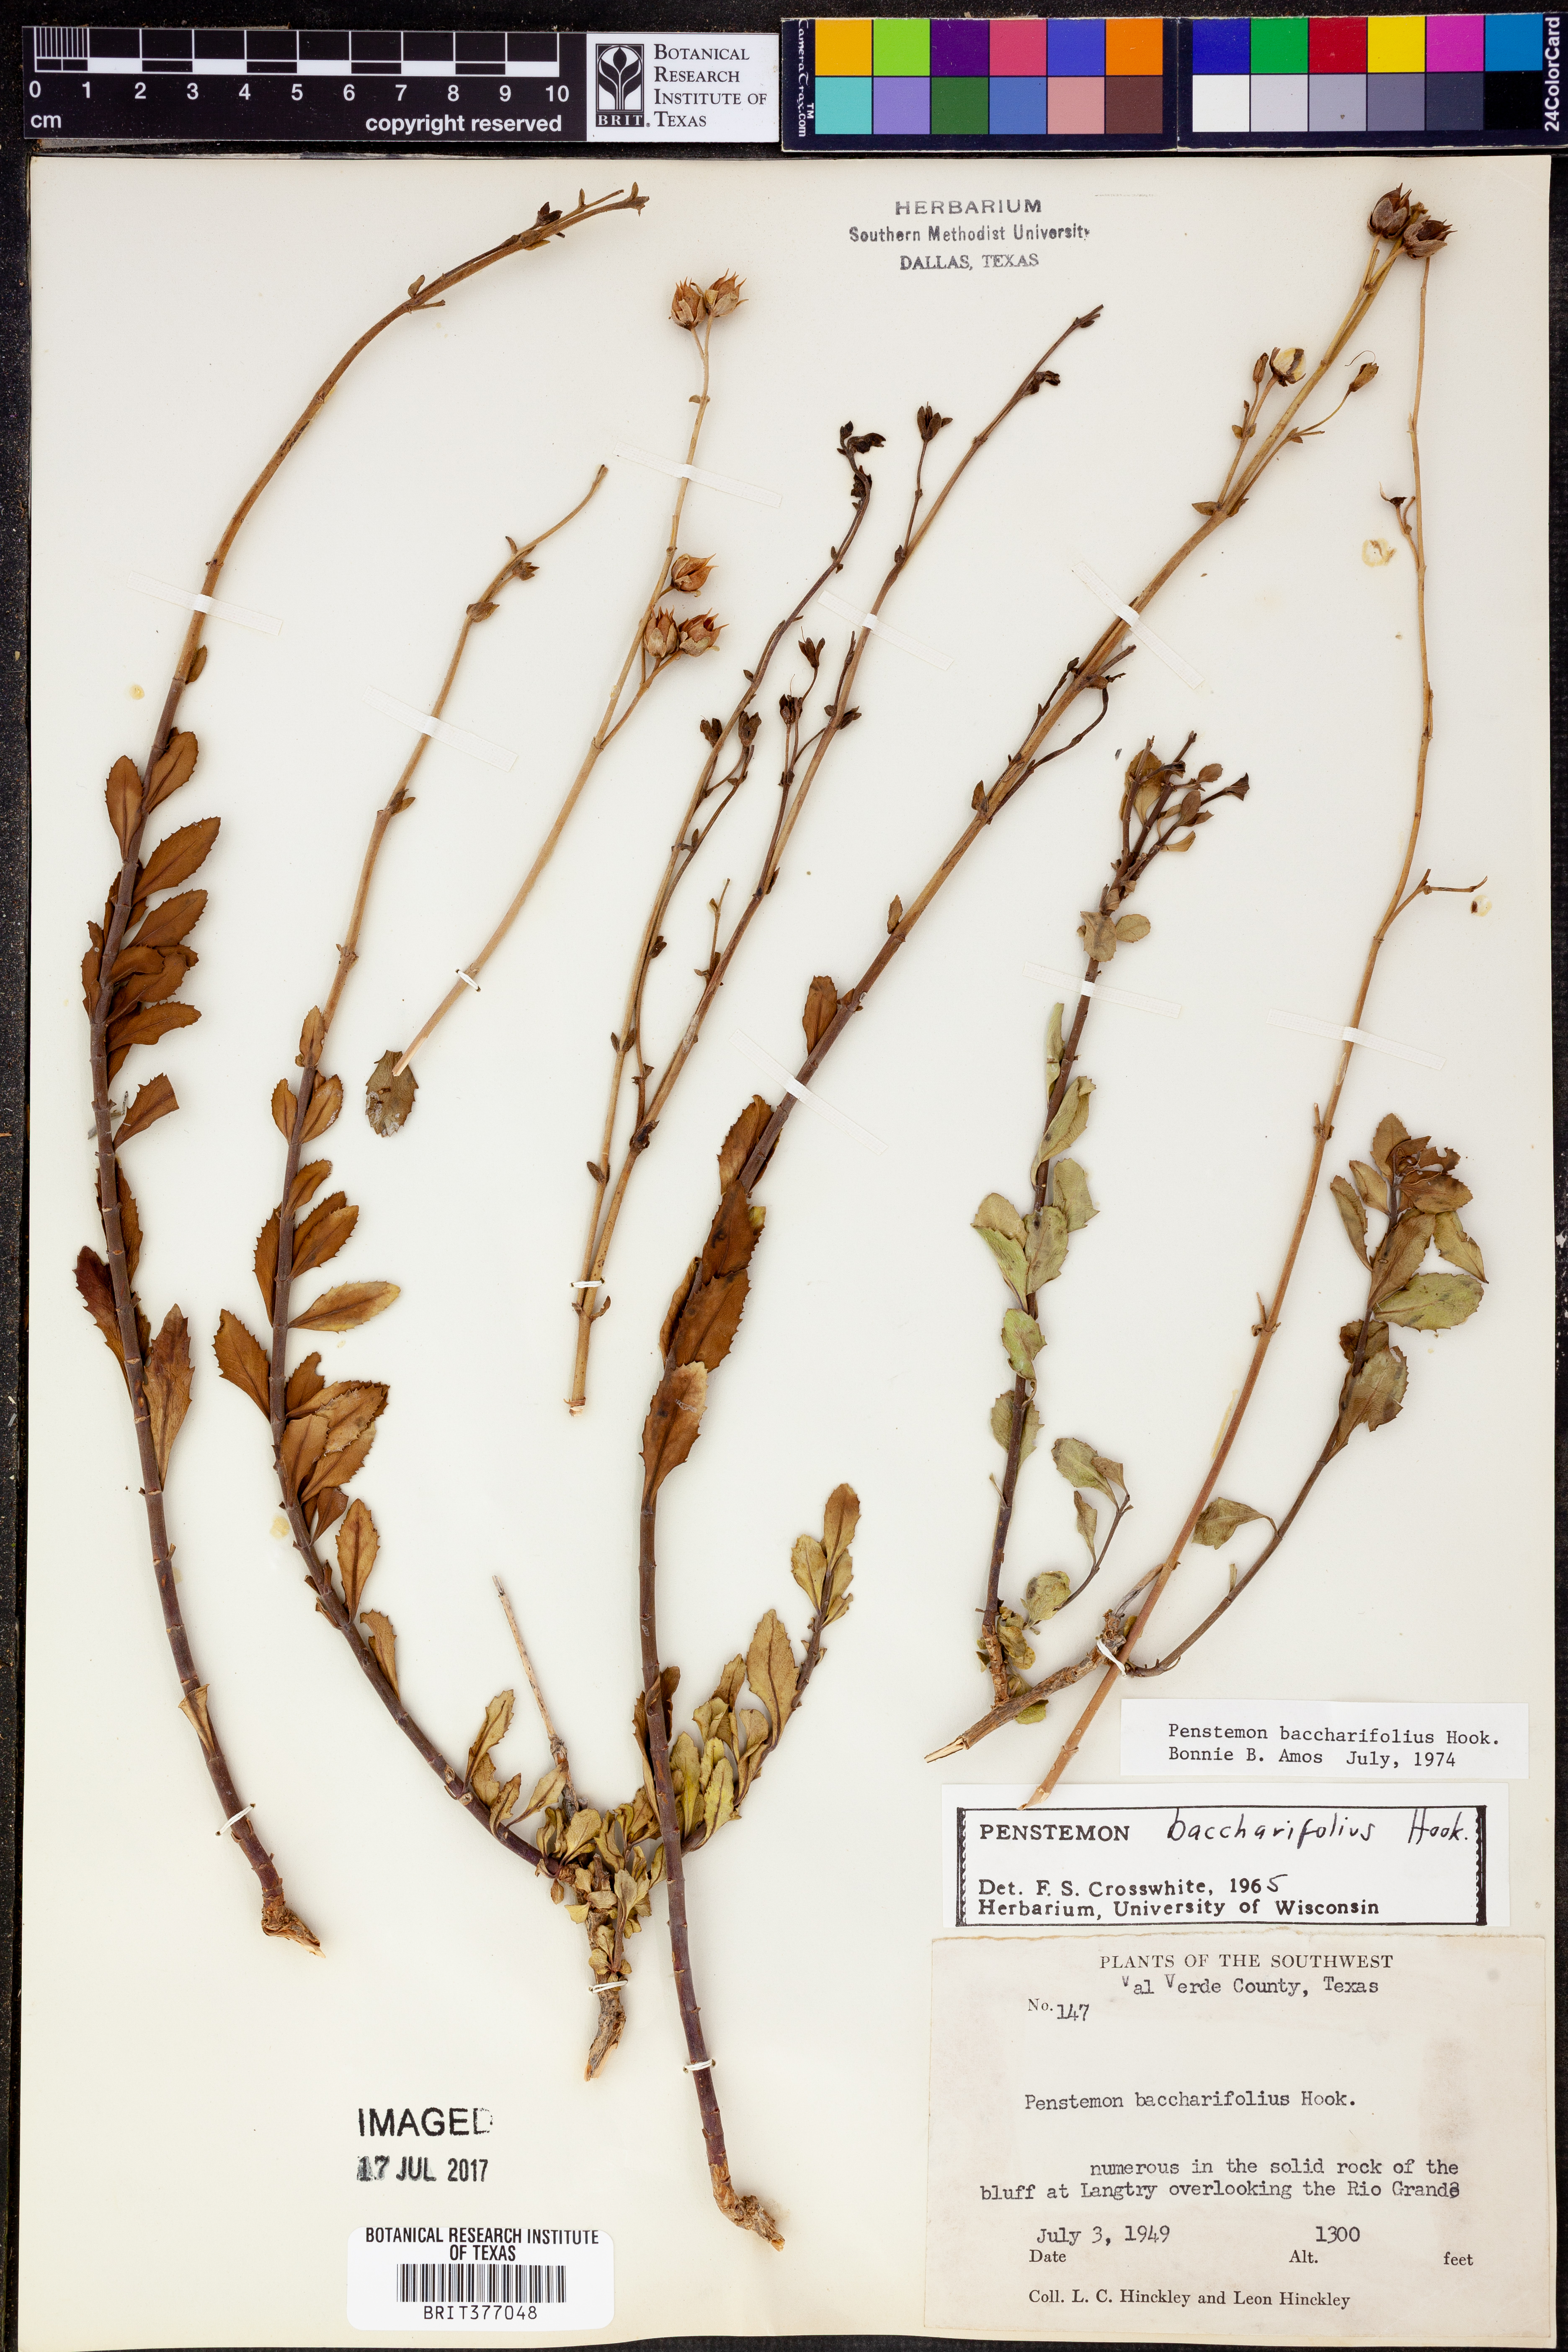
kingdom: Plantae
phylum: Tracheophyta
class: Magnoliopsida
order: Lamiales
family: Plantaginaceae
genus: Penstemon
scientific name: Penstemon baccharifolius
